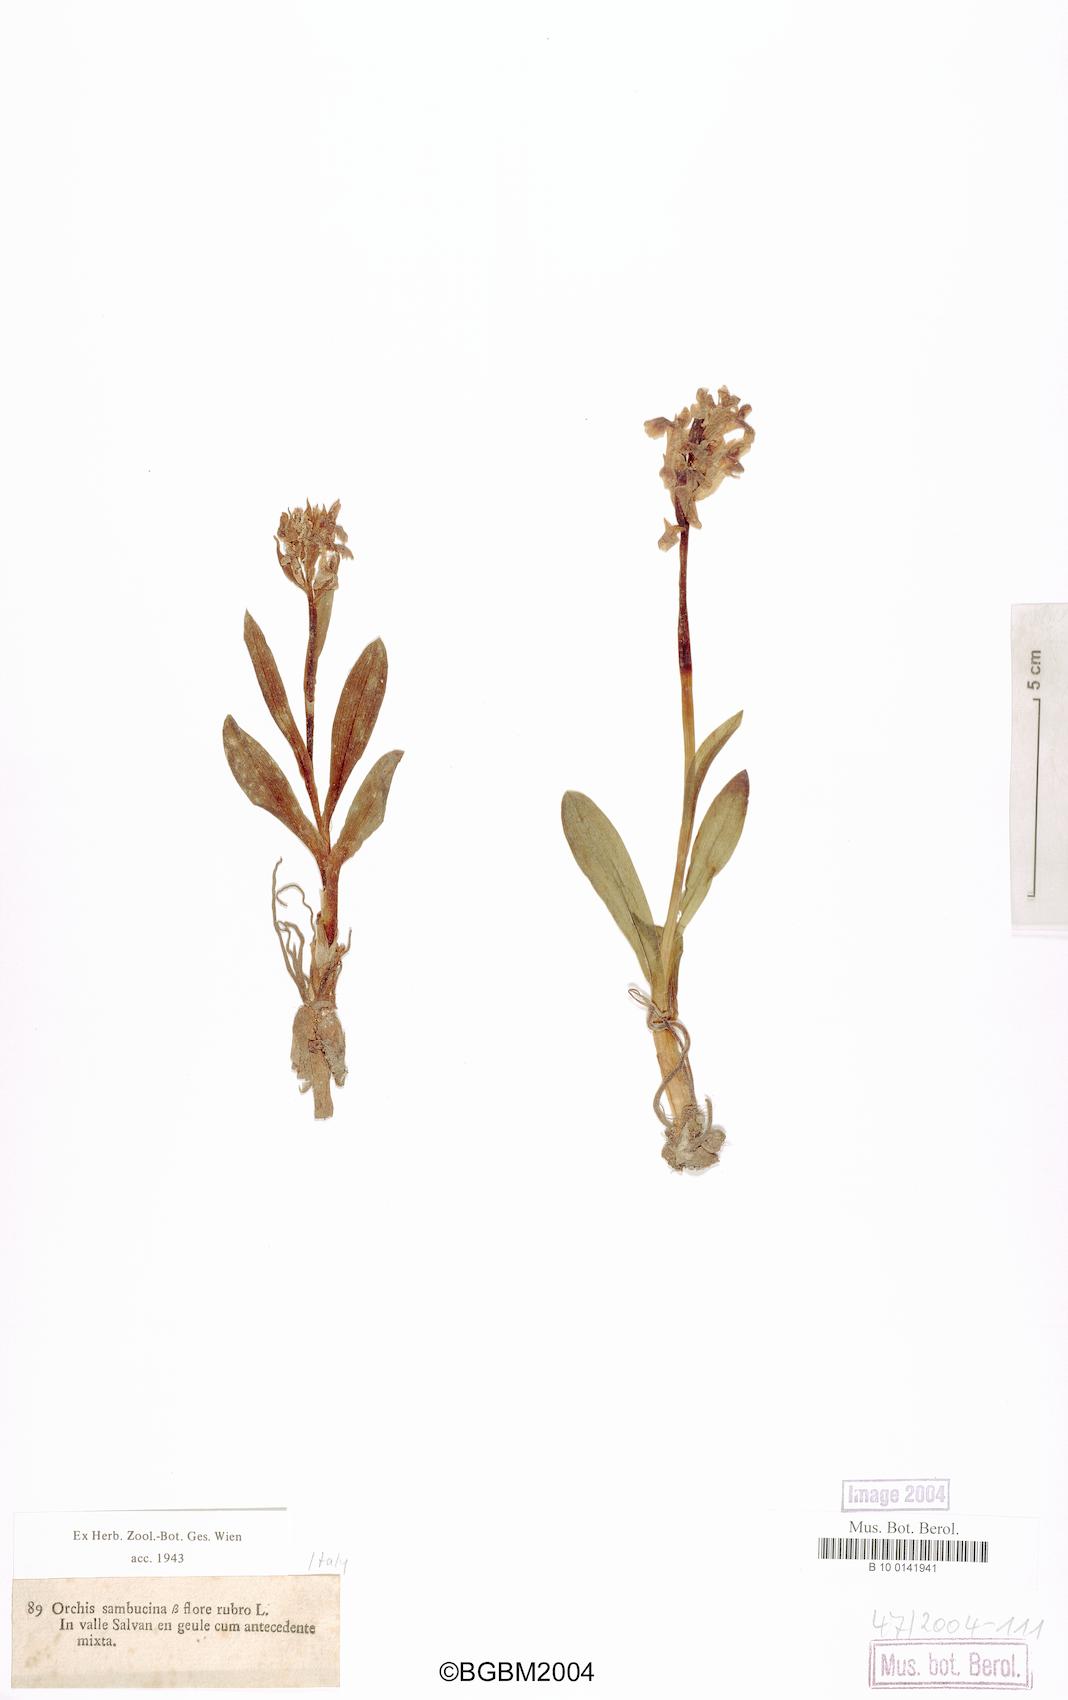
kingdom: Plantae
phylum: Tracheophyta
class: Liliopsida
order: Asparagales
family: Orchidaceae
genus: Dactylorhiza
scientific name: Dactylorhiza sambucina
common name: Elder-flowered orchid
